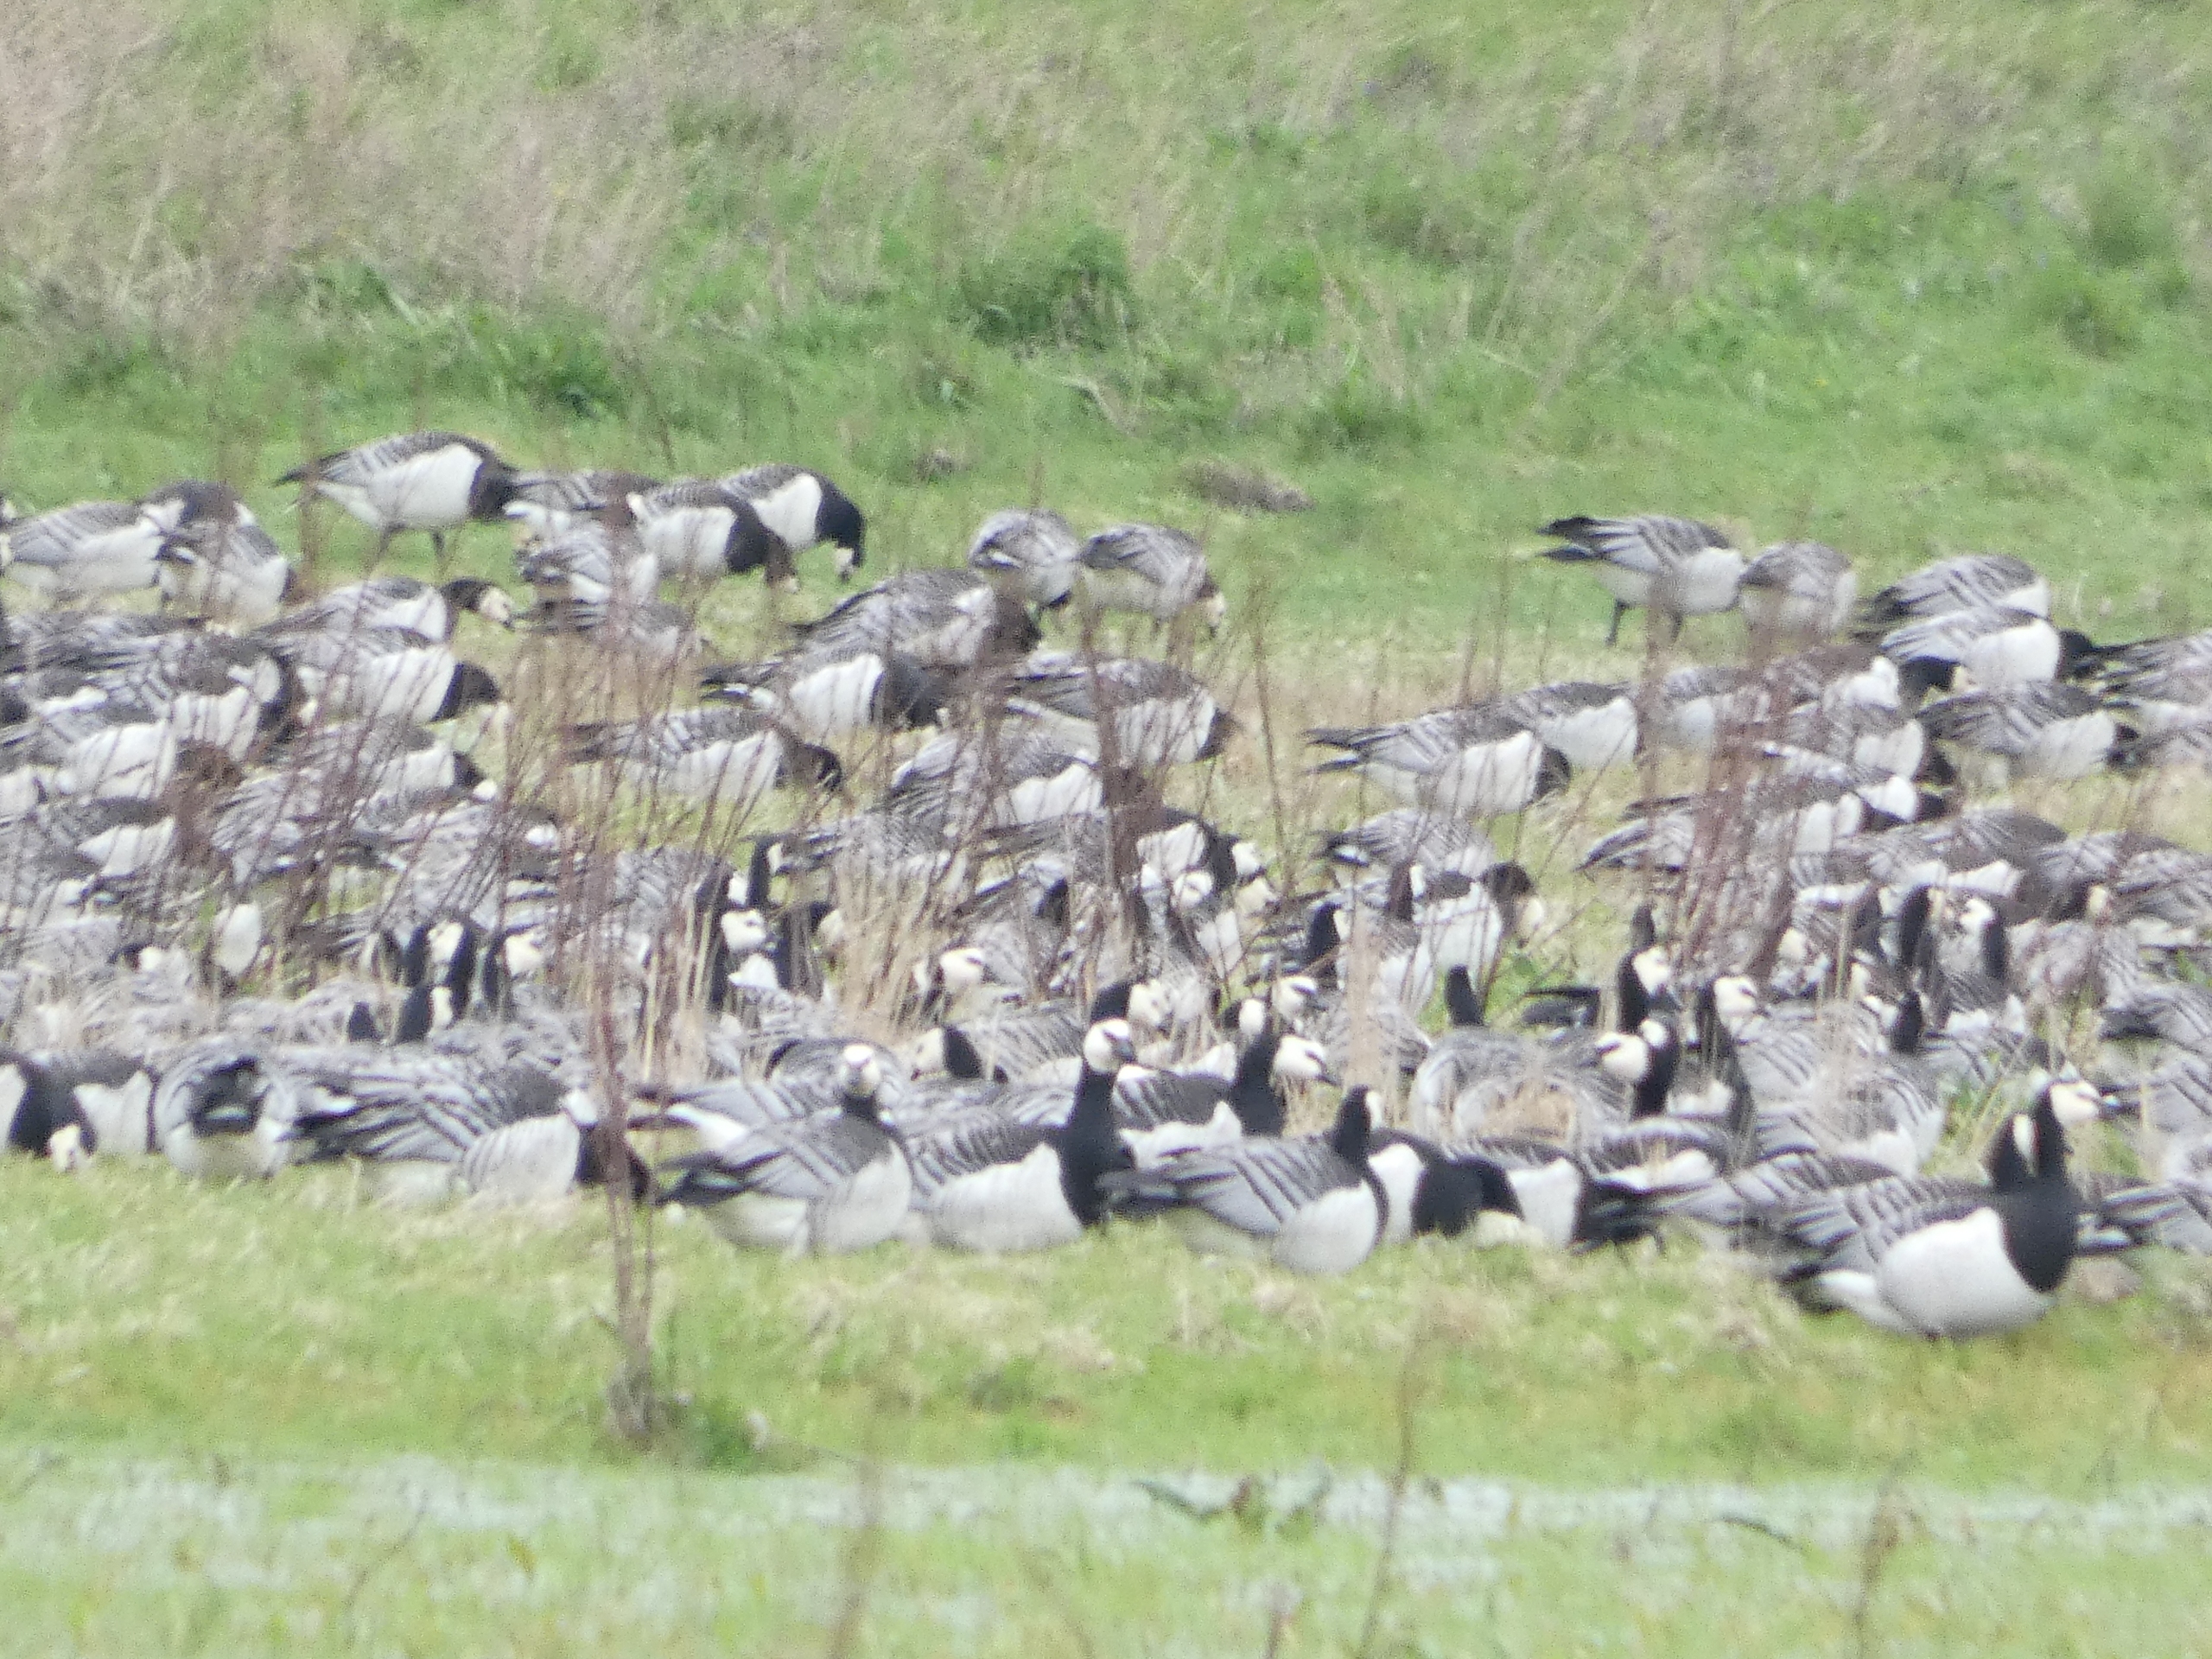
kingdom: Animalia
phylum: Chordata
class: Aves
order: Anseriformes
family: Anatidae
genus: Branta
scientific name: Branta leucopsis
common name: Bramgås
